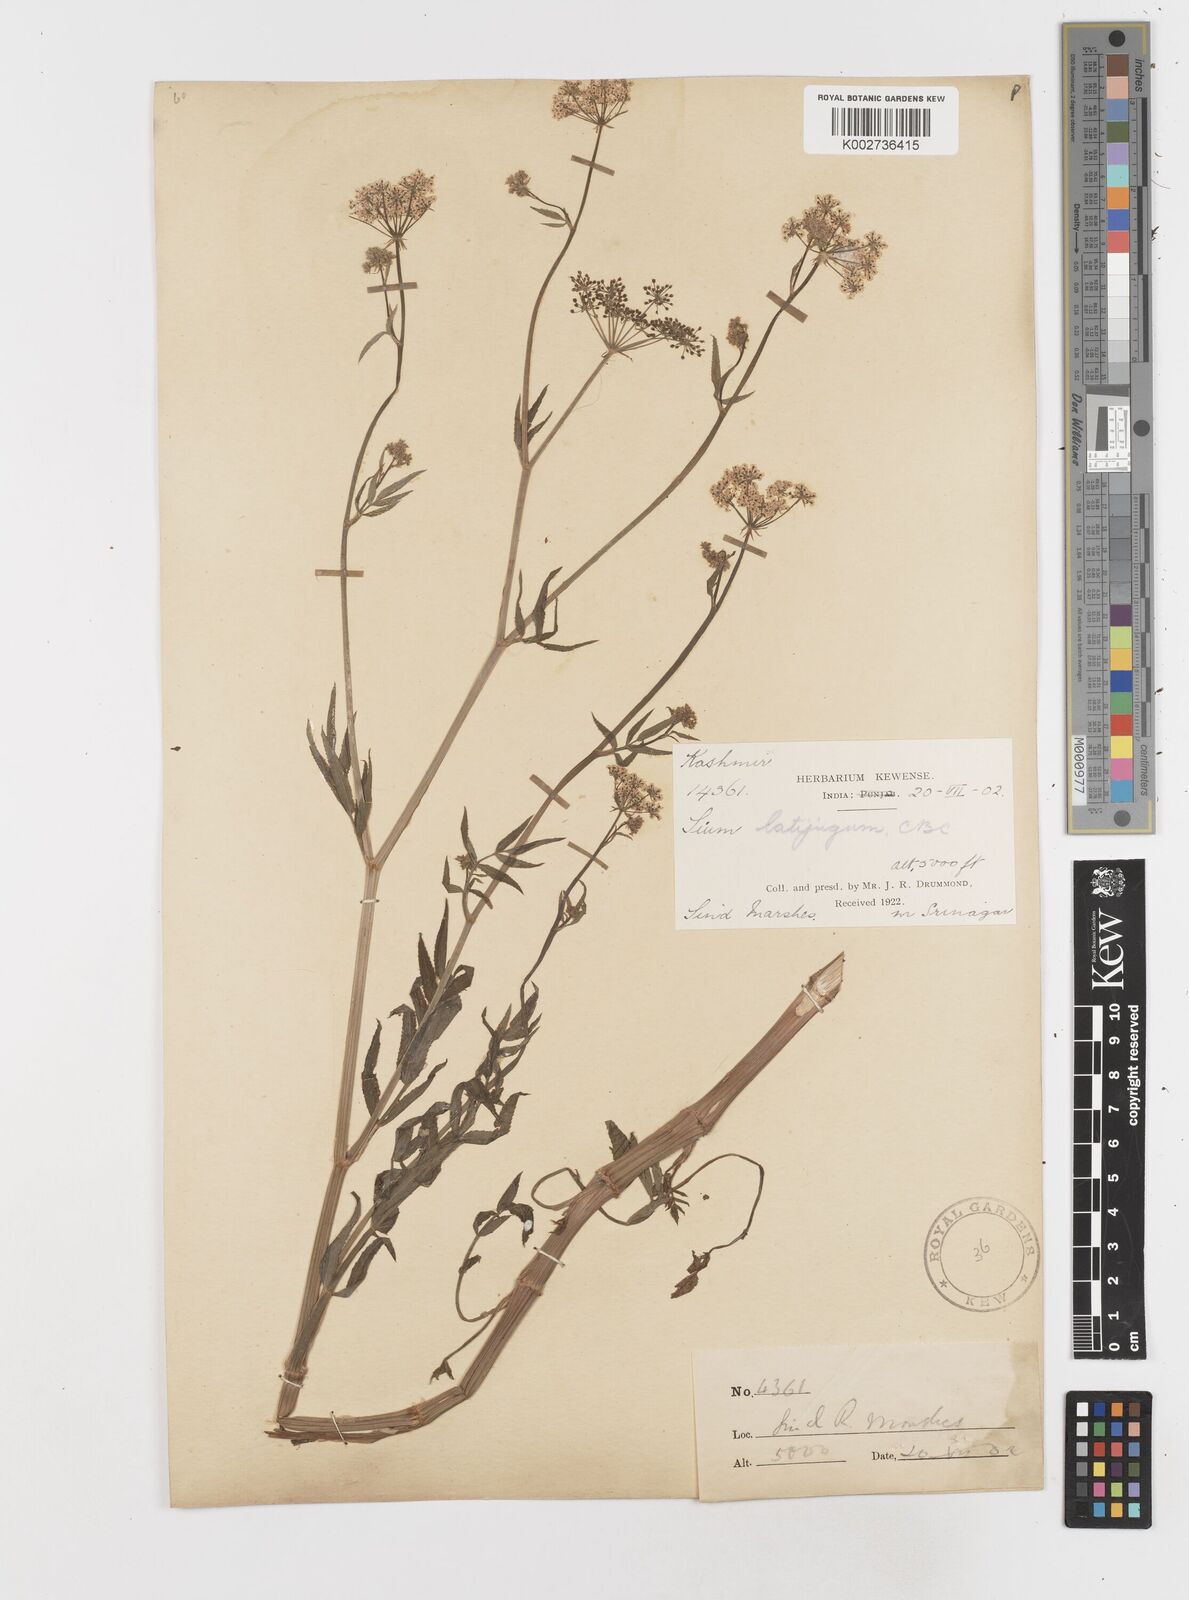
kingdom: Plantae
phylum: Tracheophyta
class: Magnoliopsida
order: Apiales
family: Apiaceae
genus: Sium
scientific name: Sium sisarum
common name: Skirret
